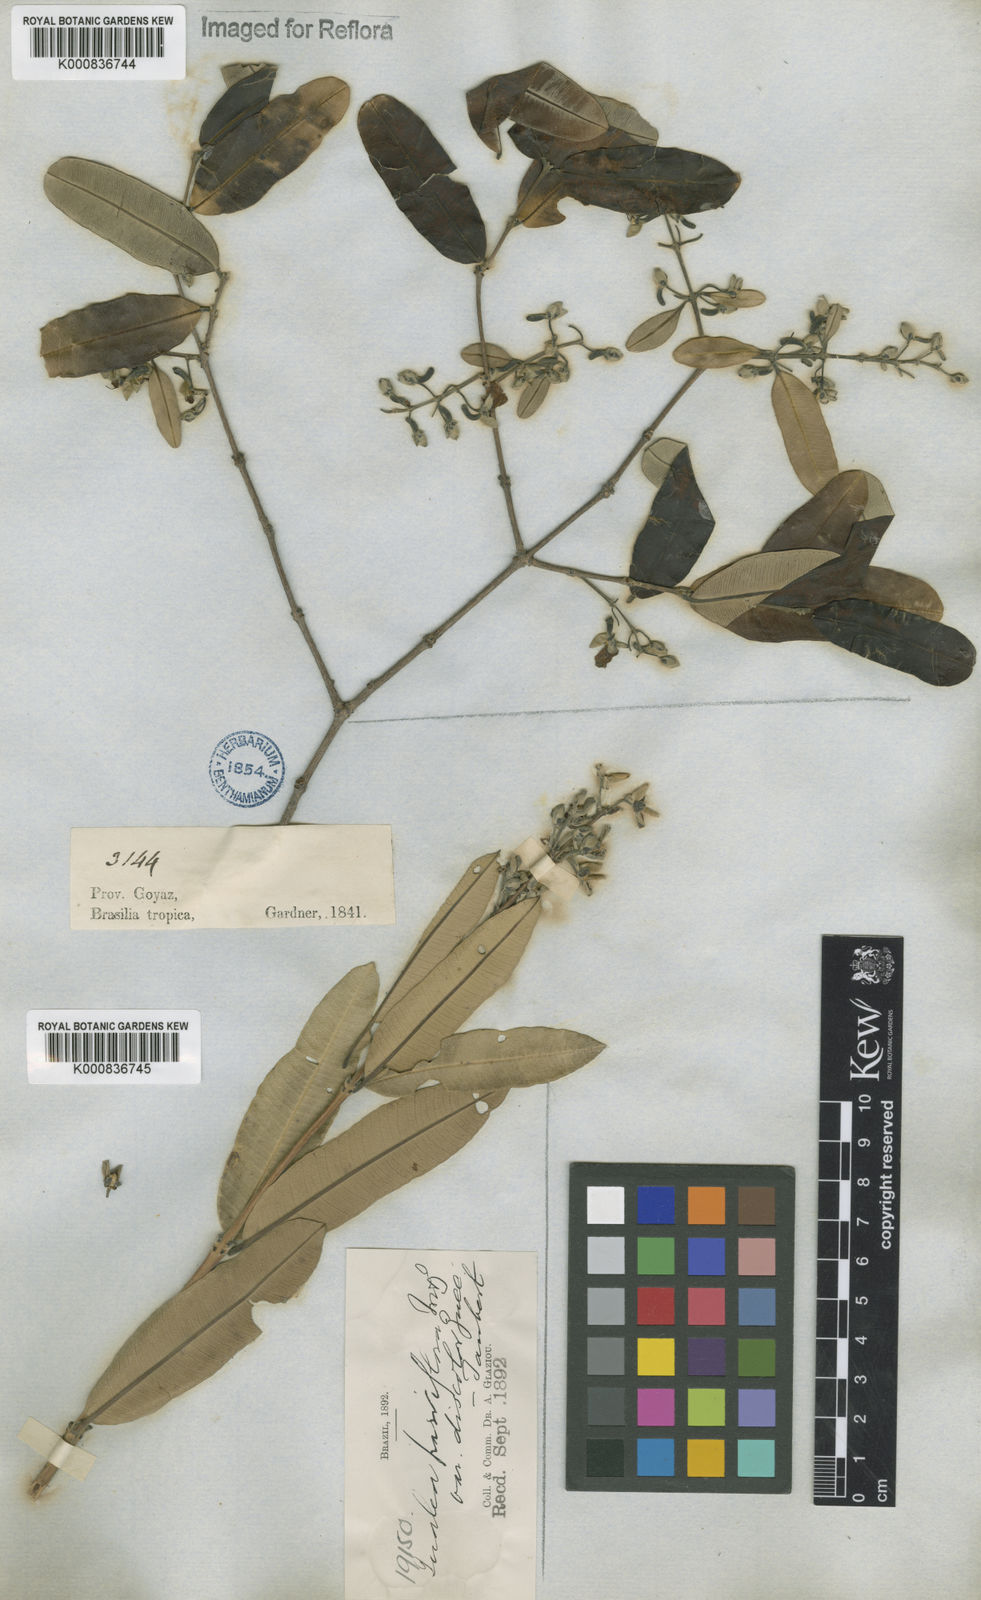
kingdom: Plantae
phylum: Tracheophyta
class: Magnoliopsida
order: Myrtales
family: Vochysiaceae
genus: Qualea
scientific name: Qualea parviflora
